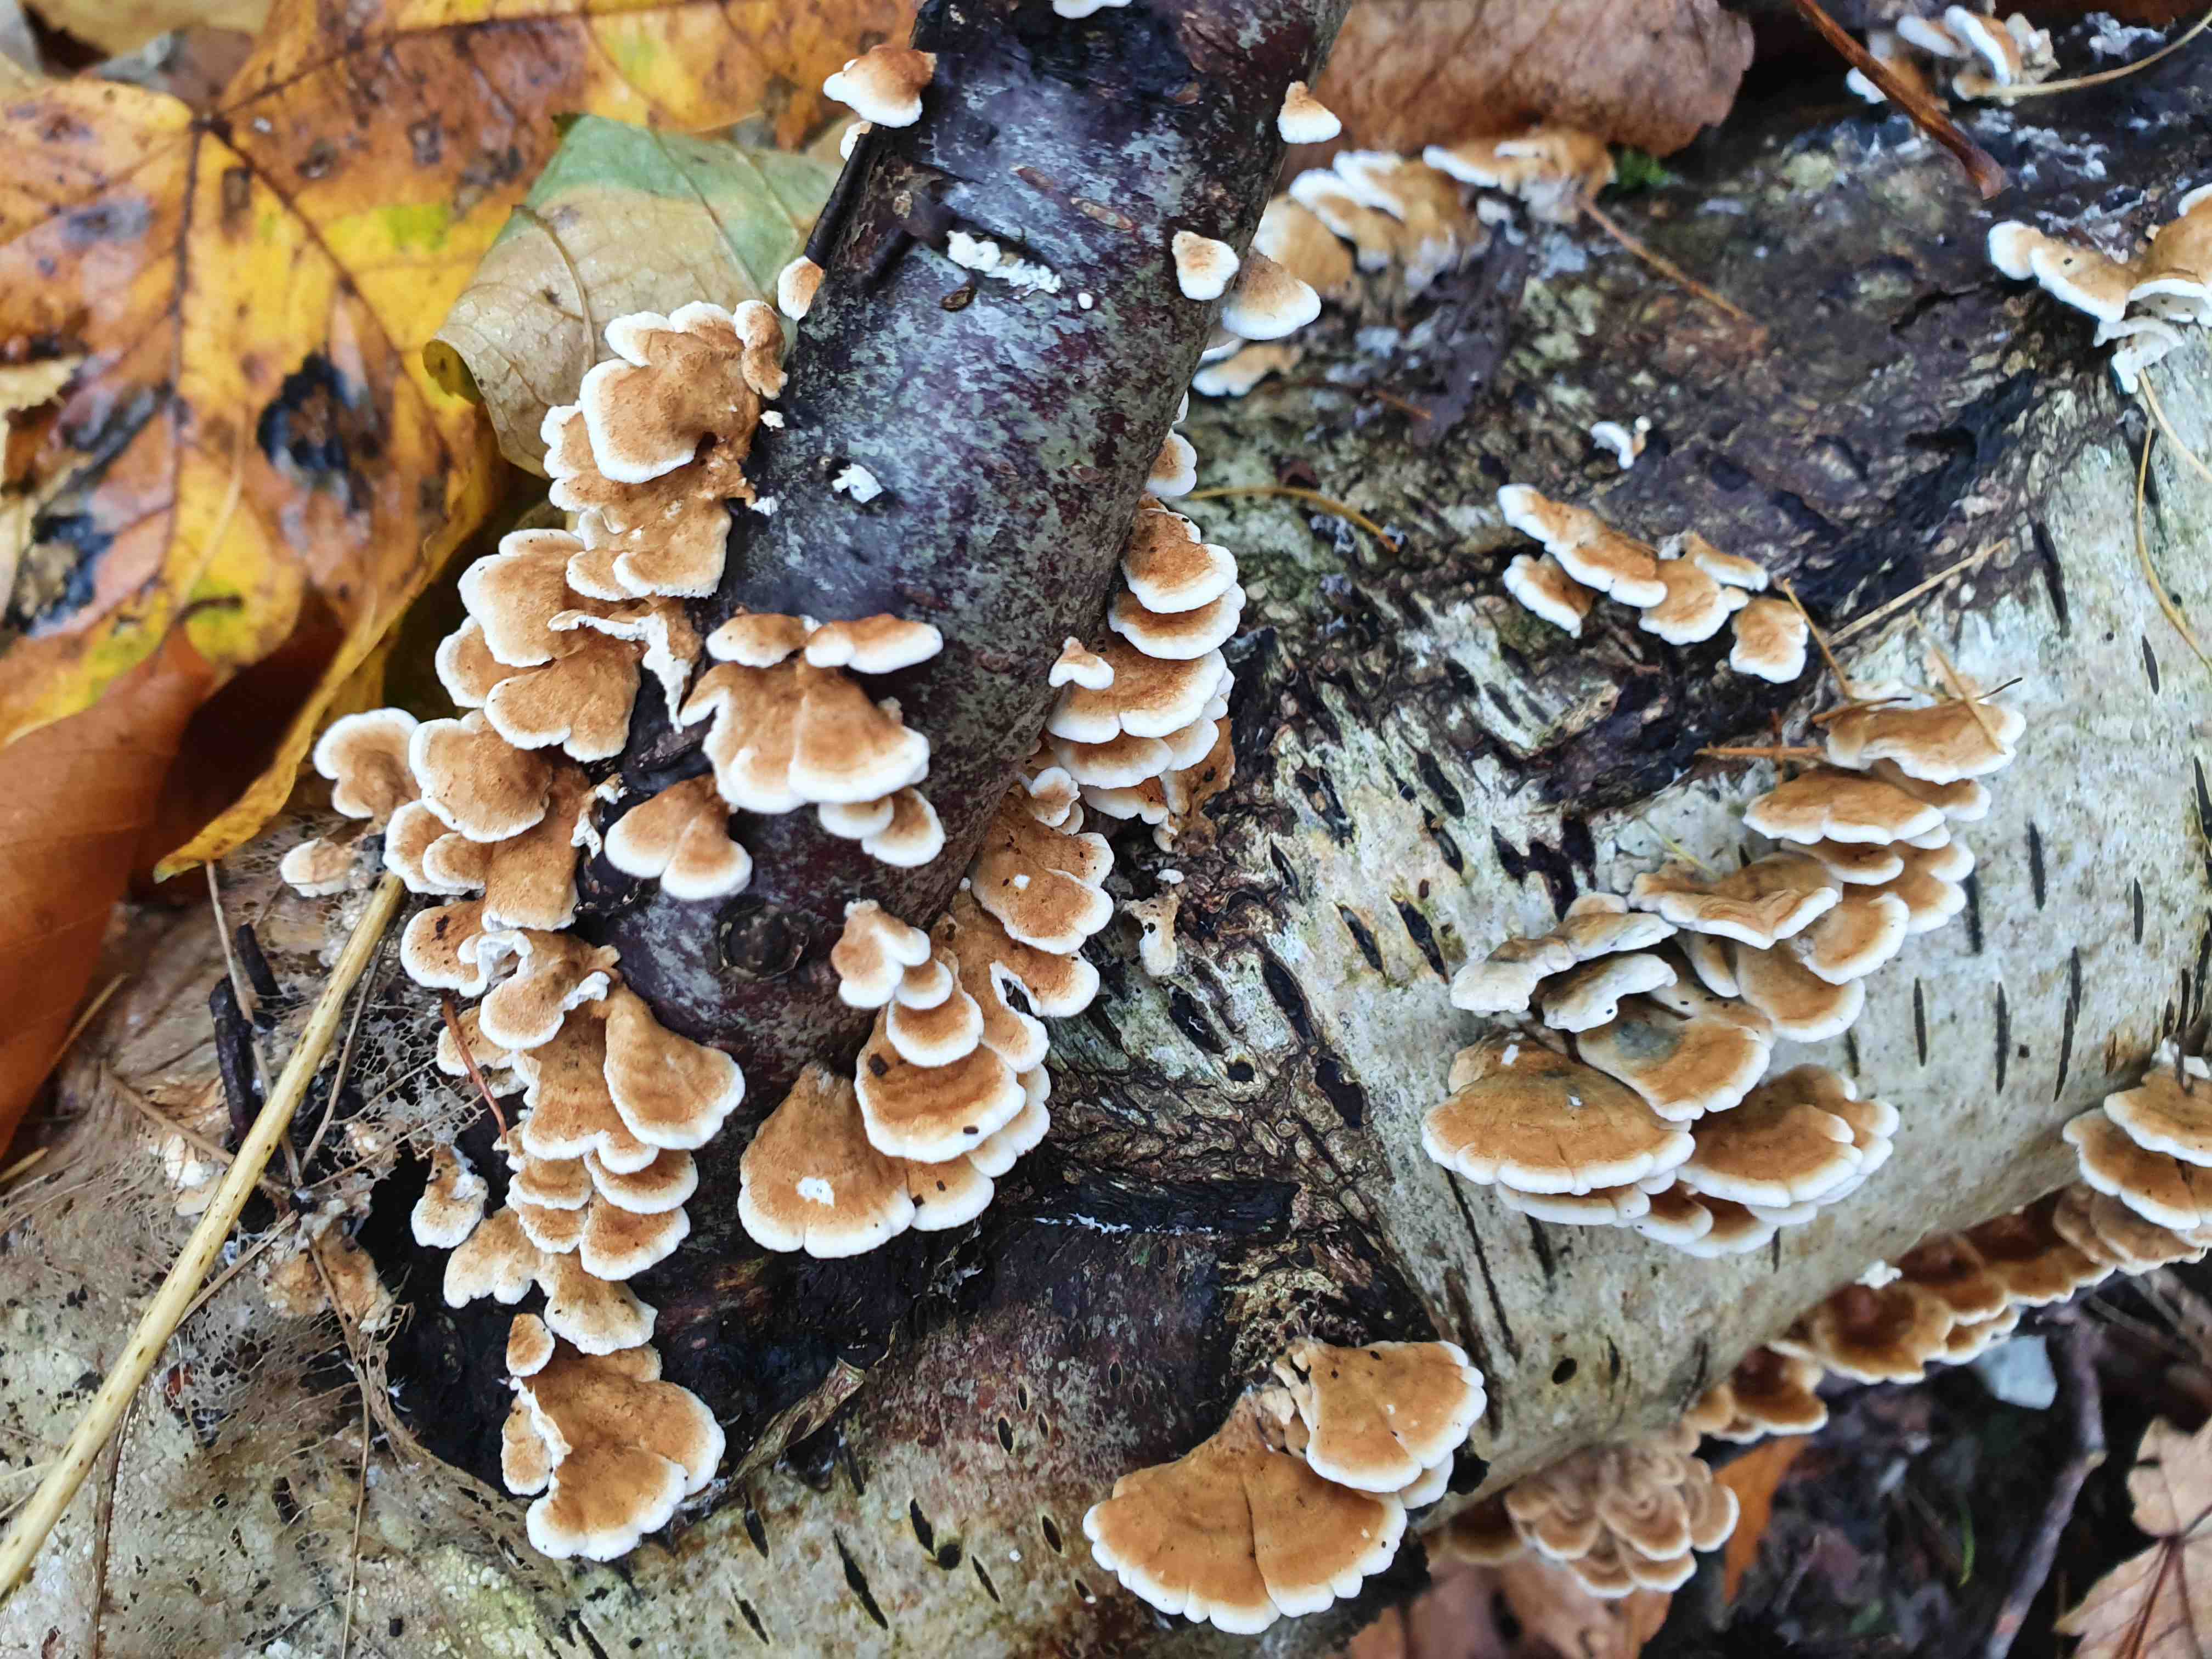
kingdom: Fungi
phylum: Basidiomycota
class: Agaricomycetes
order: Amylocorticiales
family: Amylocorticiaceae
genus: Plicaturopsis
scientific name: Plicaturopsis crispa
